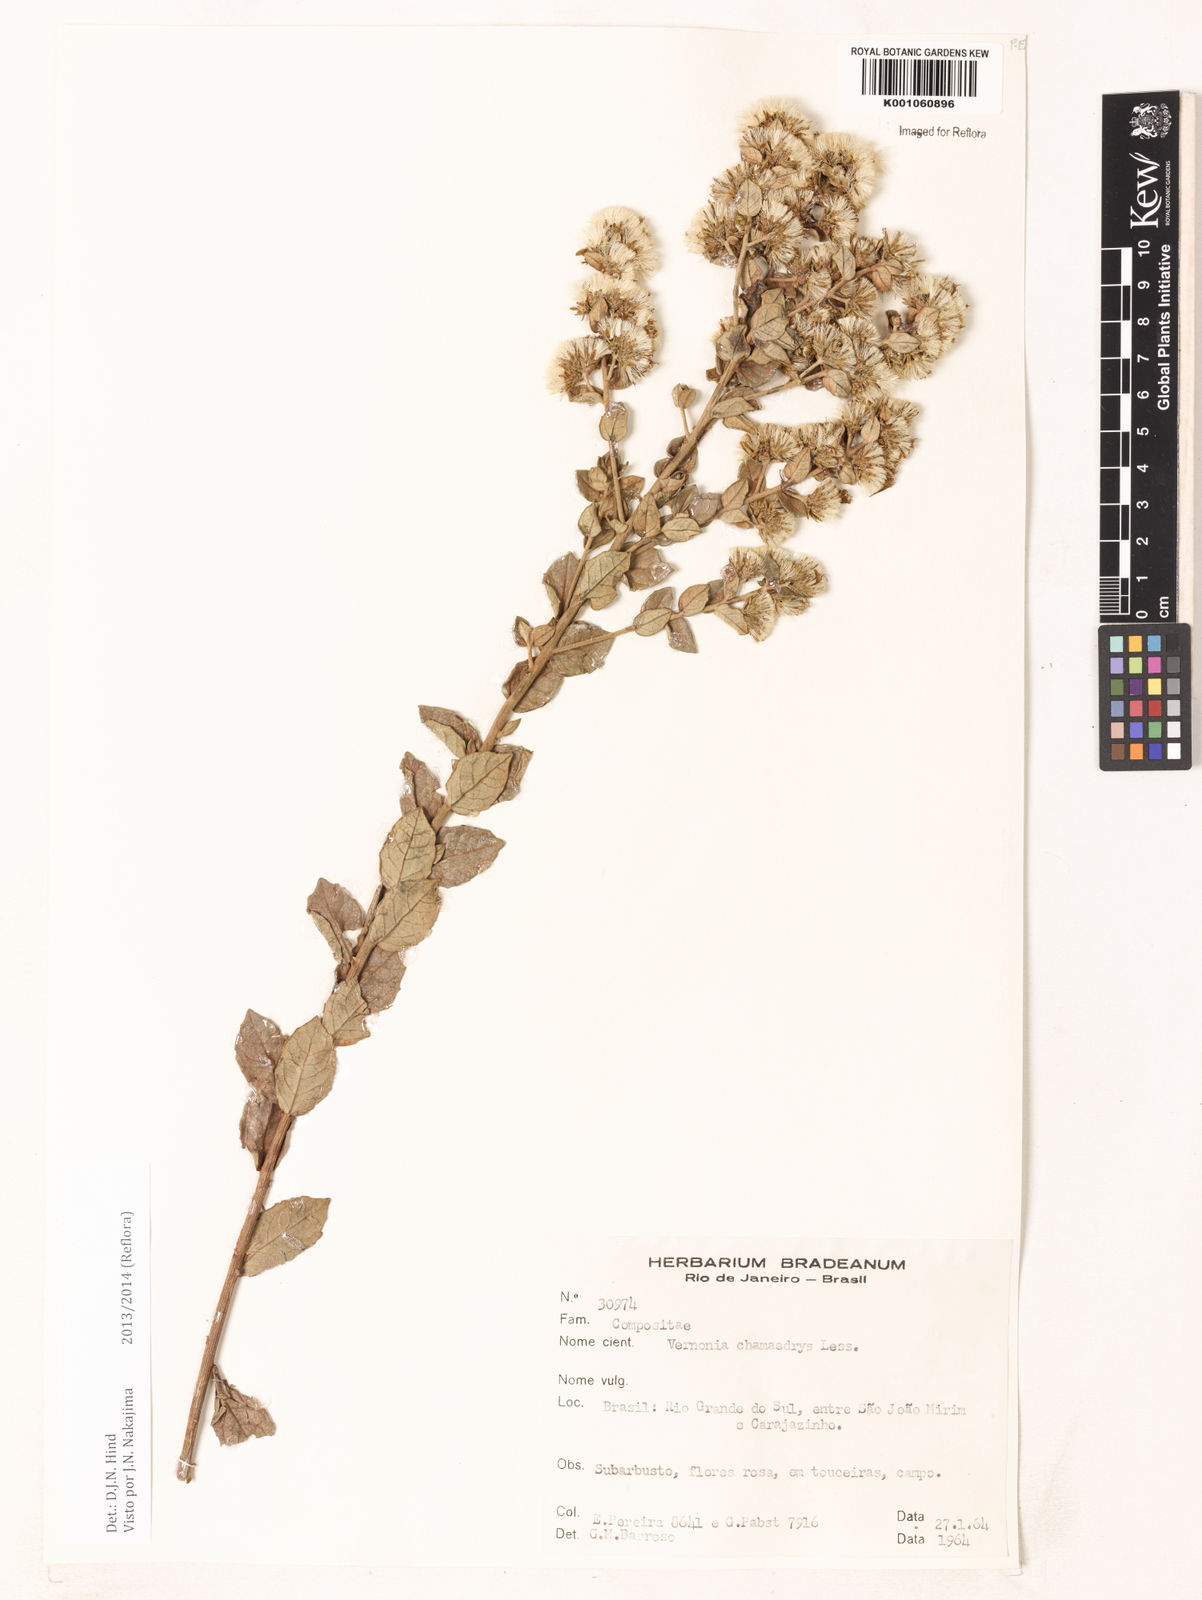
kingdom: Plantae
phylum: Tracheophyta
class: Magnoliopsida
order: Asterales
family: Asteraceae
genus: Vernonanthura
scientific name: Vernonanthura chamaedrys
